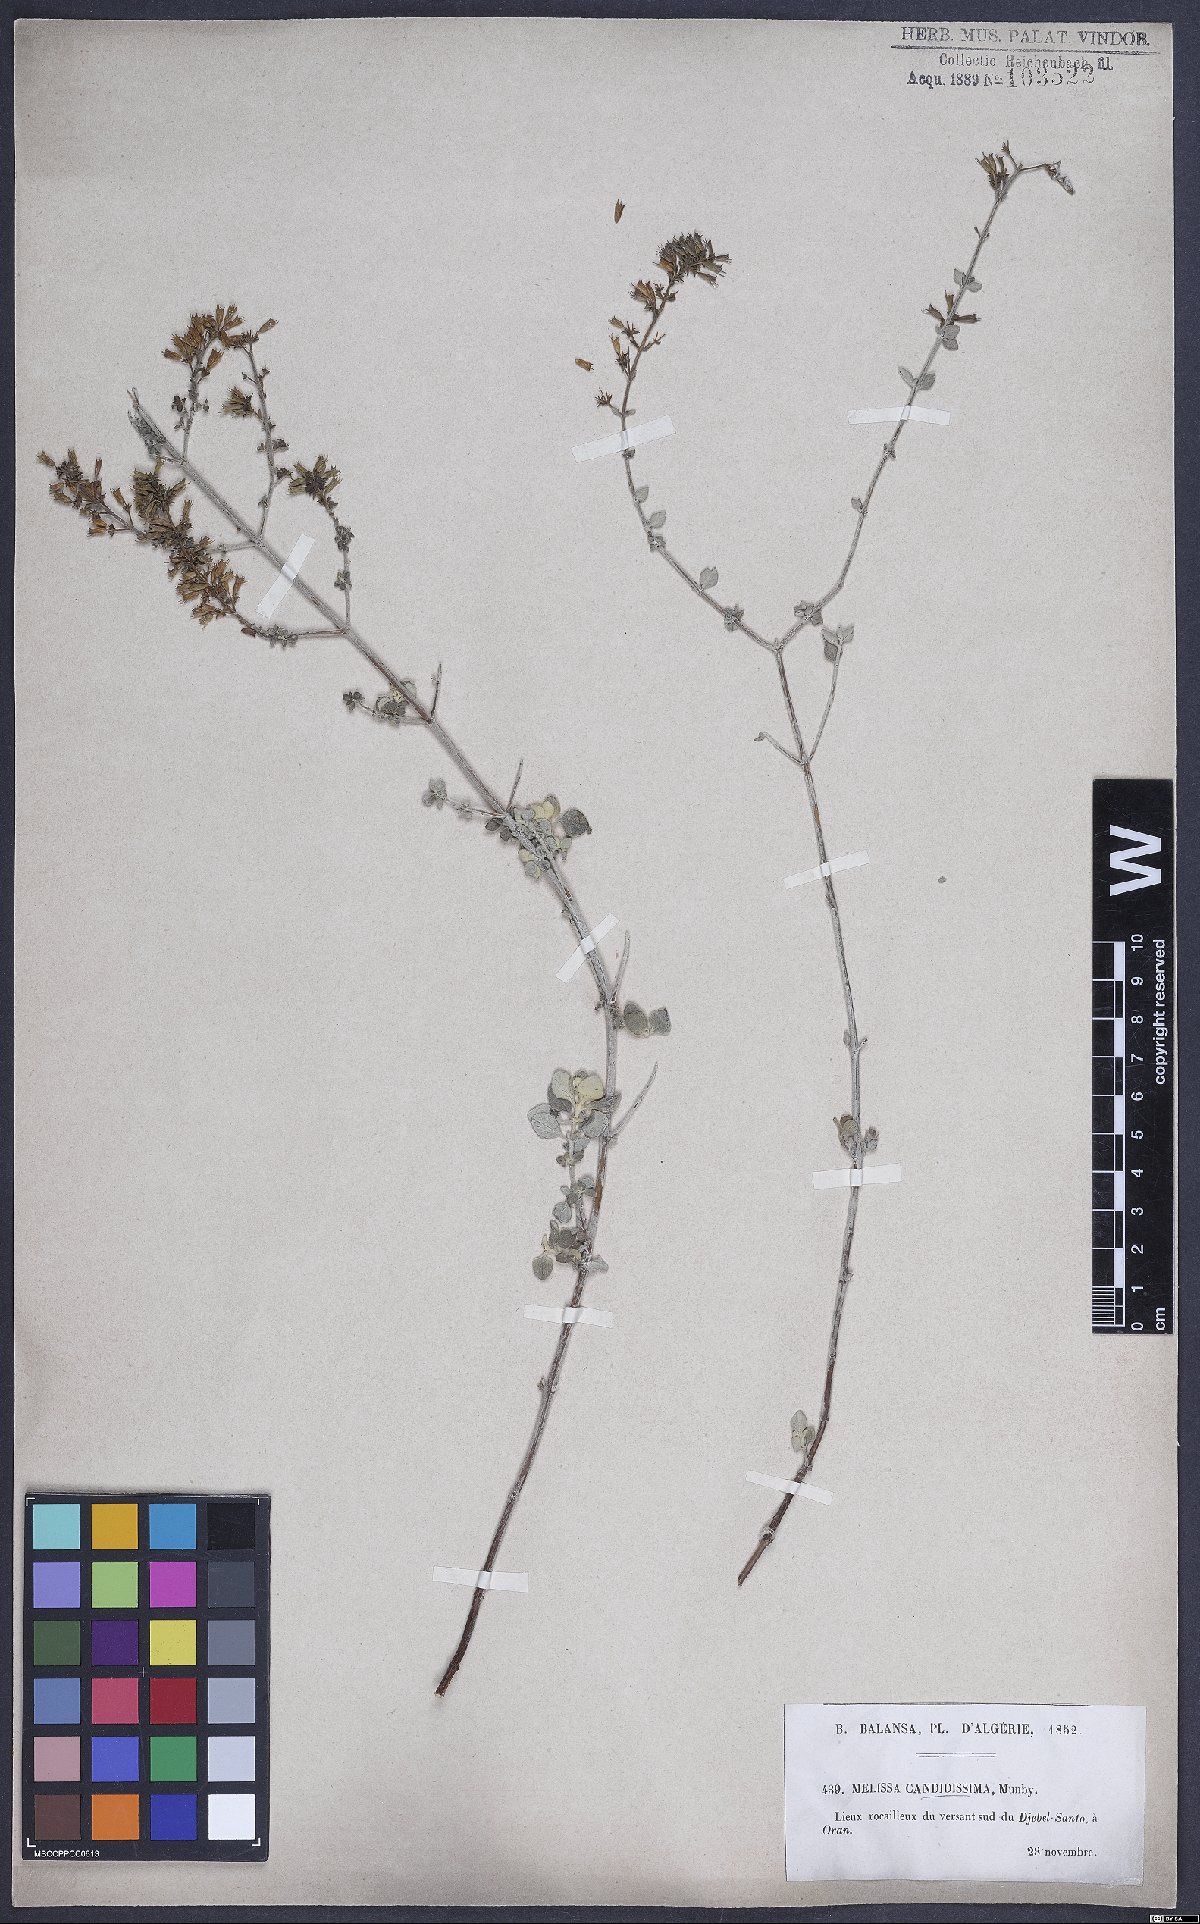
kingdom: Plantae
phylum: Tracheophyta
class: Magnoliopsida
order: Lamiales
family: Lamiaceae
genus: Calamintha
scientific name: Calamintha
